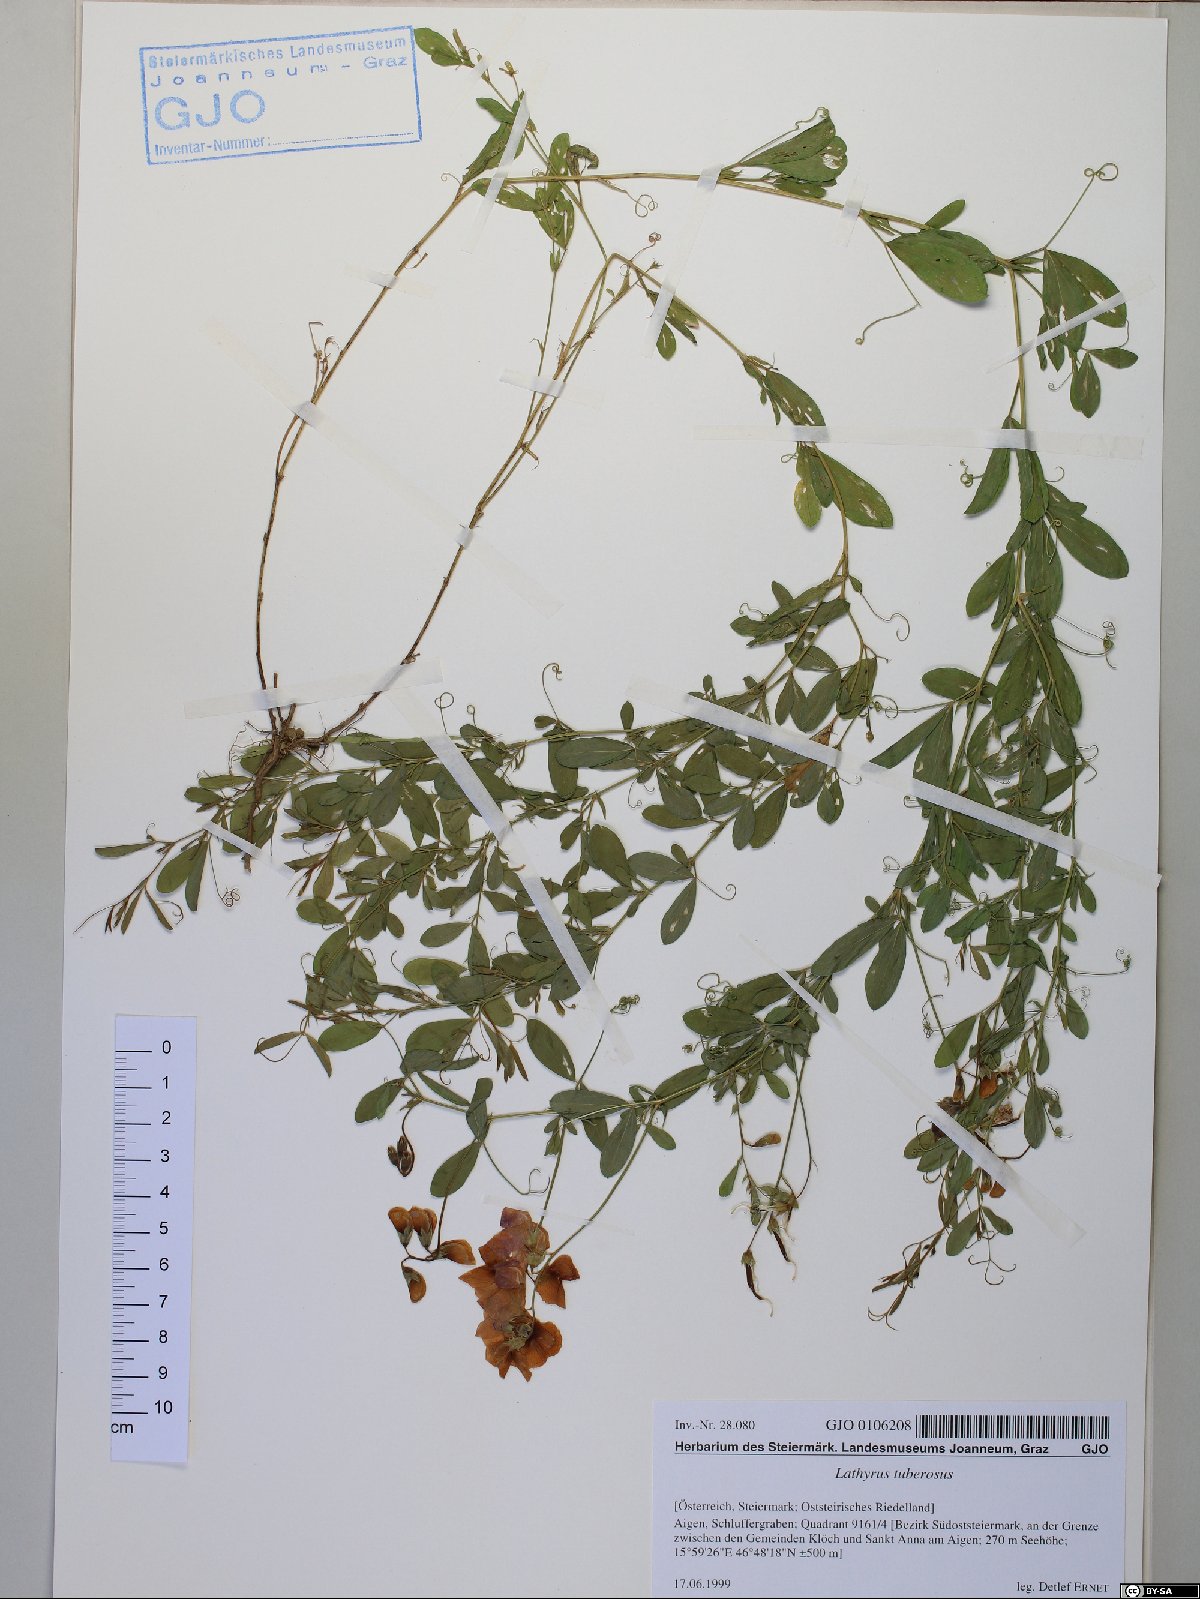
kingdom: Plantae
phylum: Tracheophyta
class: Magnoliopsida
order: Fabales
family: Fabaceae
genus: Lathyrus
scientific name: Lathyrus tuberosus
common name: Tuberous pea
